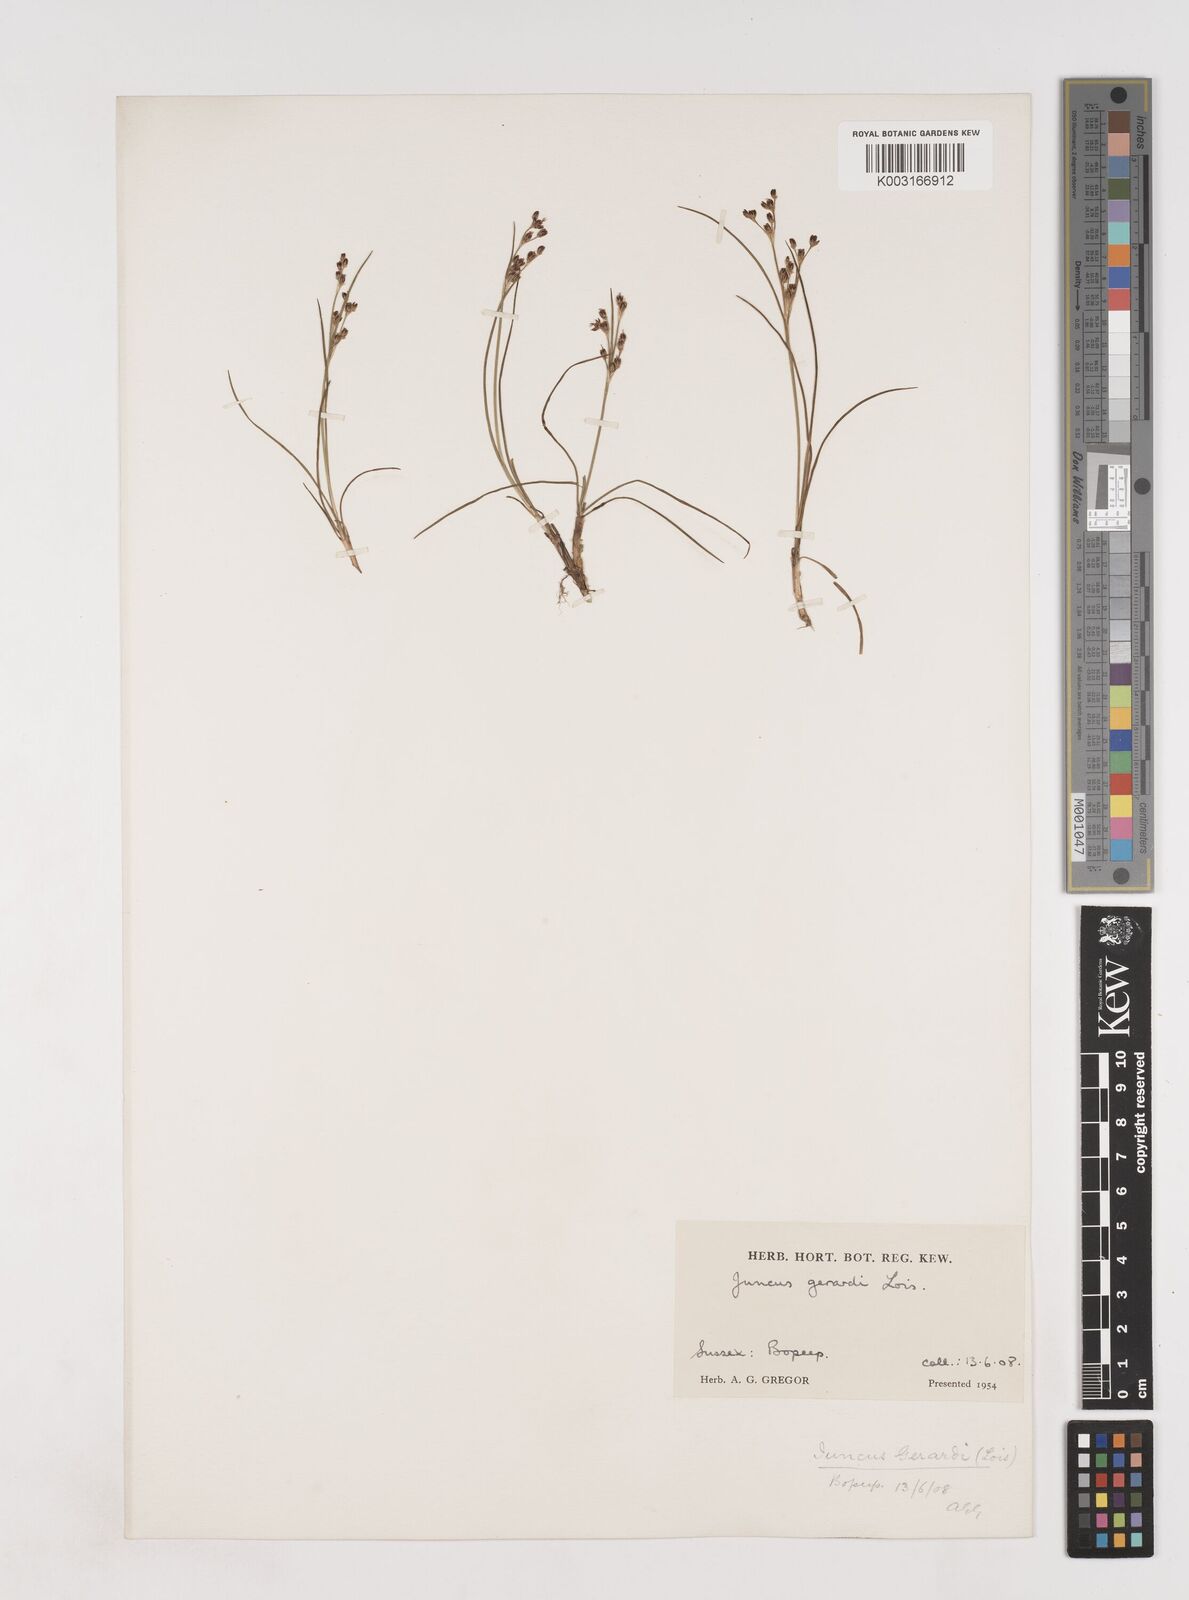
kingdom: Plantae
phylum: Tracheophyta
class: Liliopsida
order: Poales
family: Juncaceae
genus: Juncus
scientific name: Juncus gerardi
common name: Saltmarsh rush
